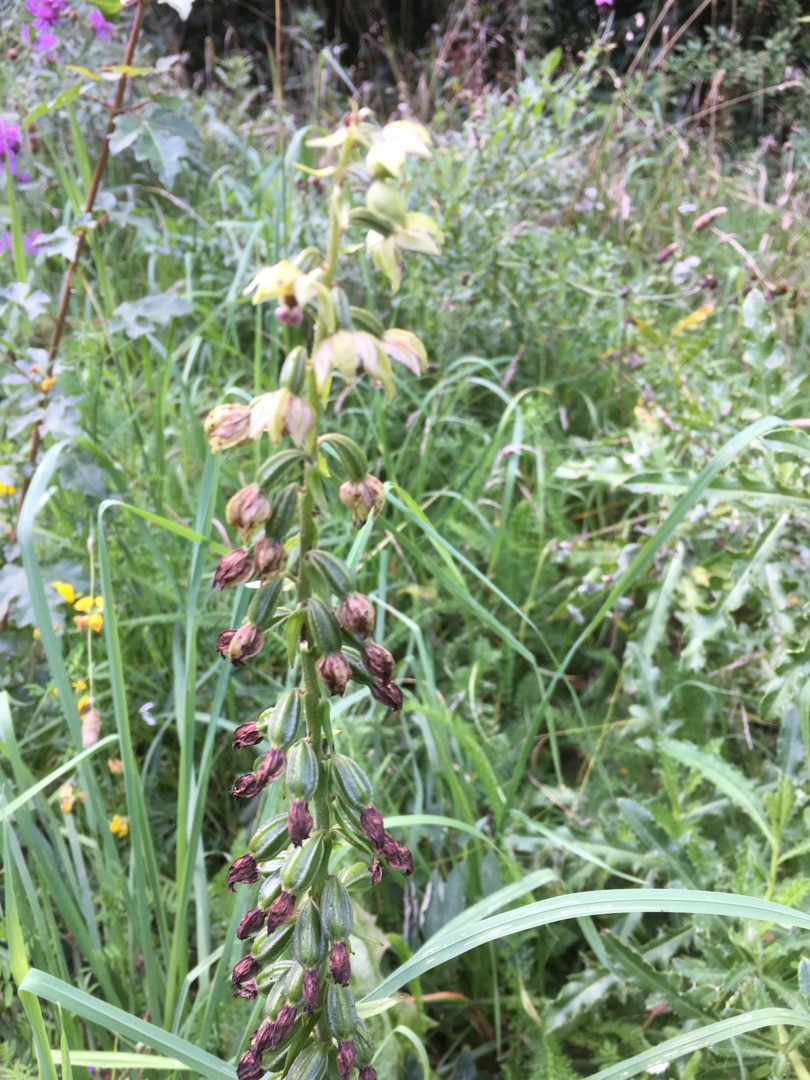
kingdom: Plantae
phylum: Tracheophyta
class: Liliopsida
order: Asparagales
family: Orchidaceae
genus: Epipactis
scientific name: Epipactis helleborine
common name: Skov-hullæbe
